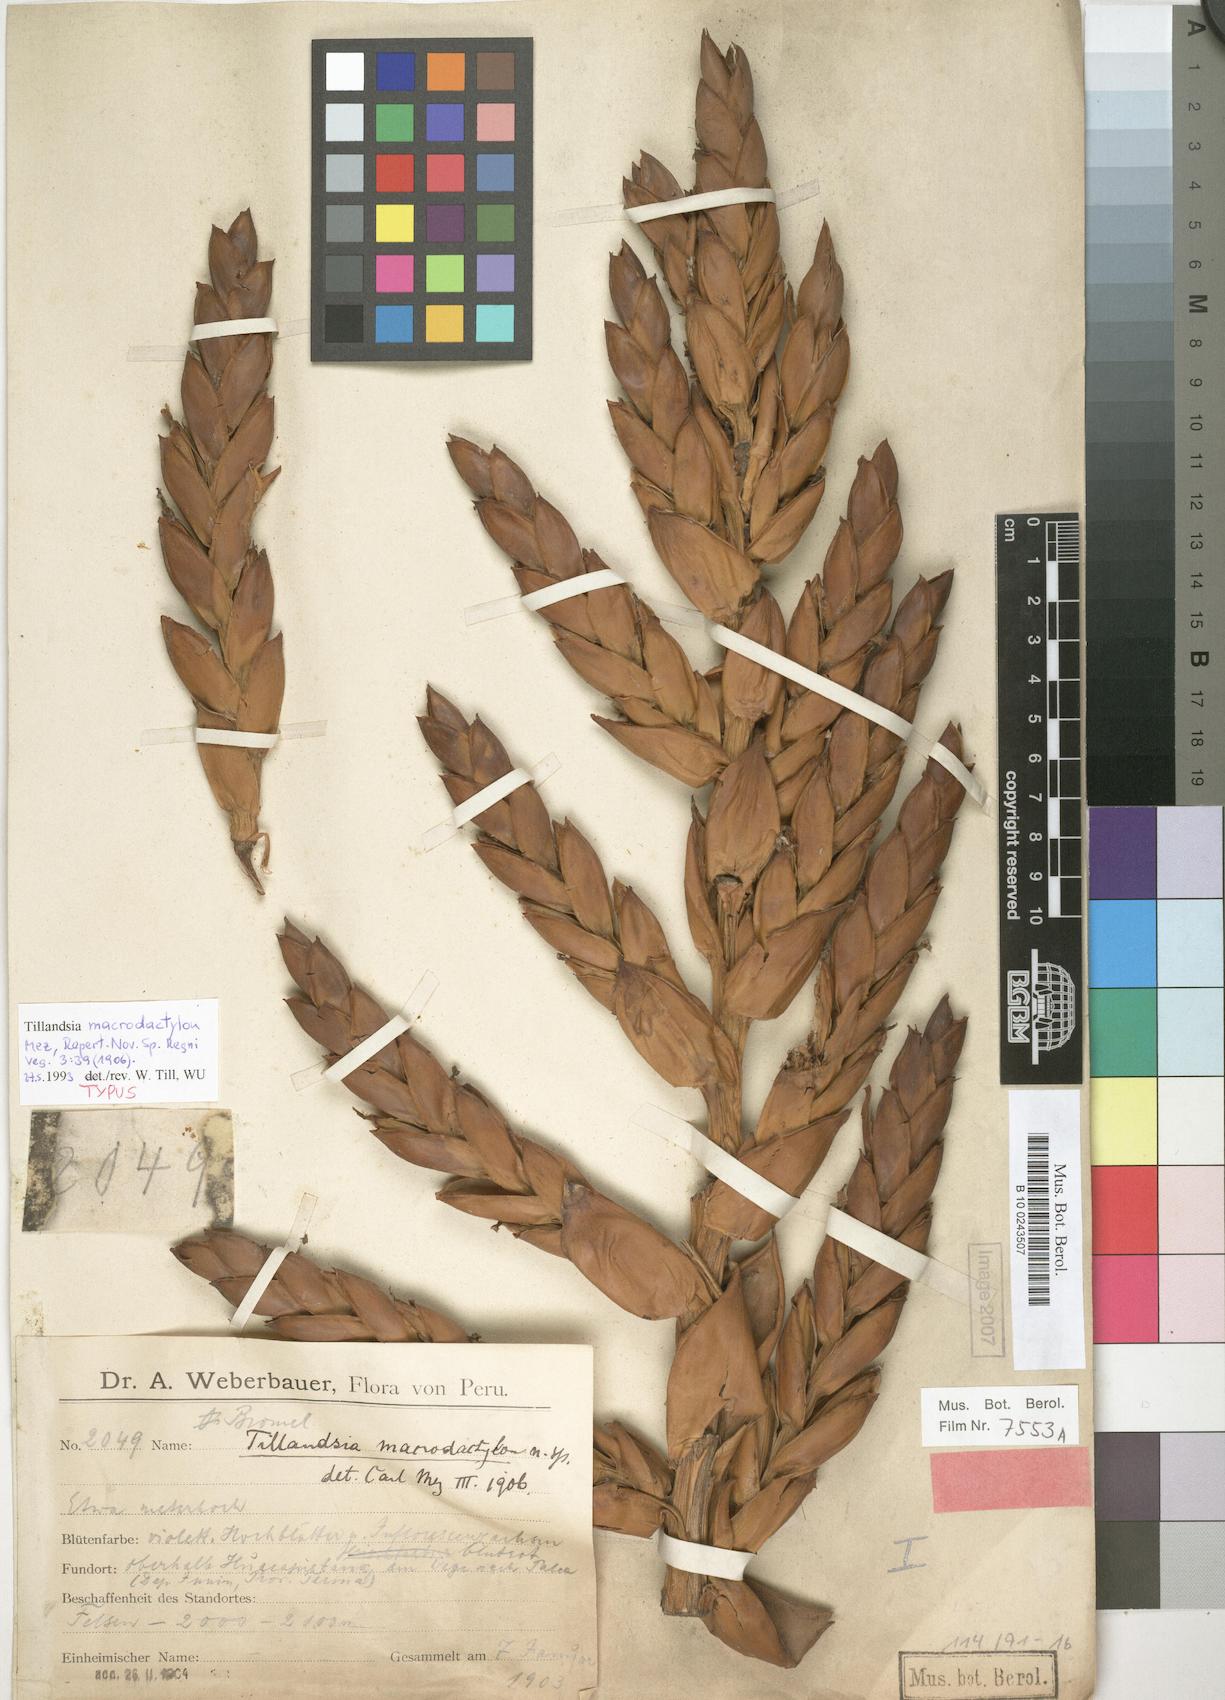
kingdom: Plantae
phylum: Tracheophyta
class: Liliopsida
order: Poales
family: Bromeliaceae
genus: Tillandsia
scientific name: Tillandsia macrodactylon
